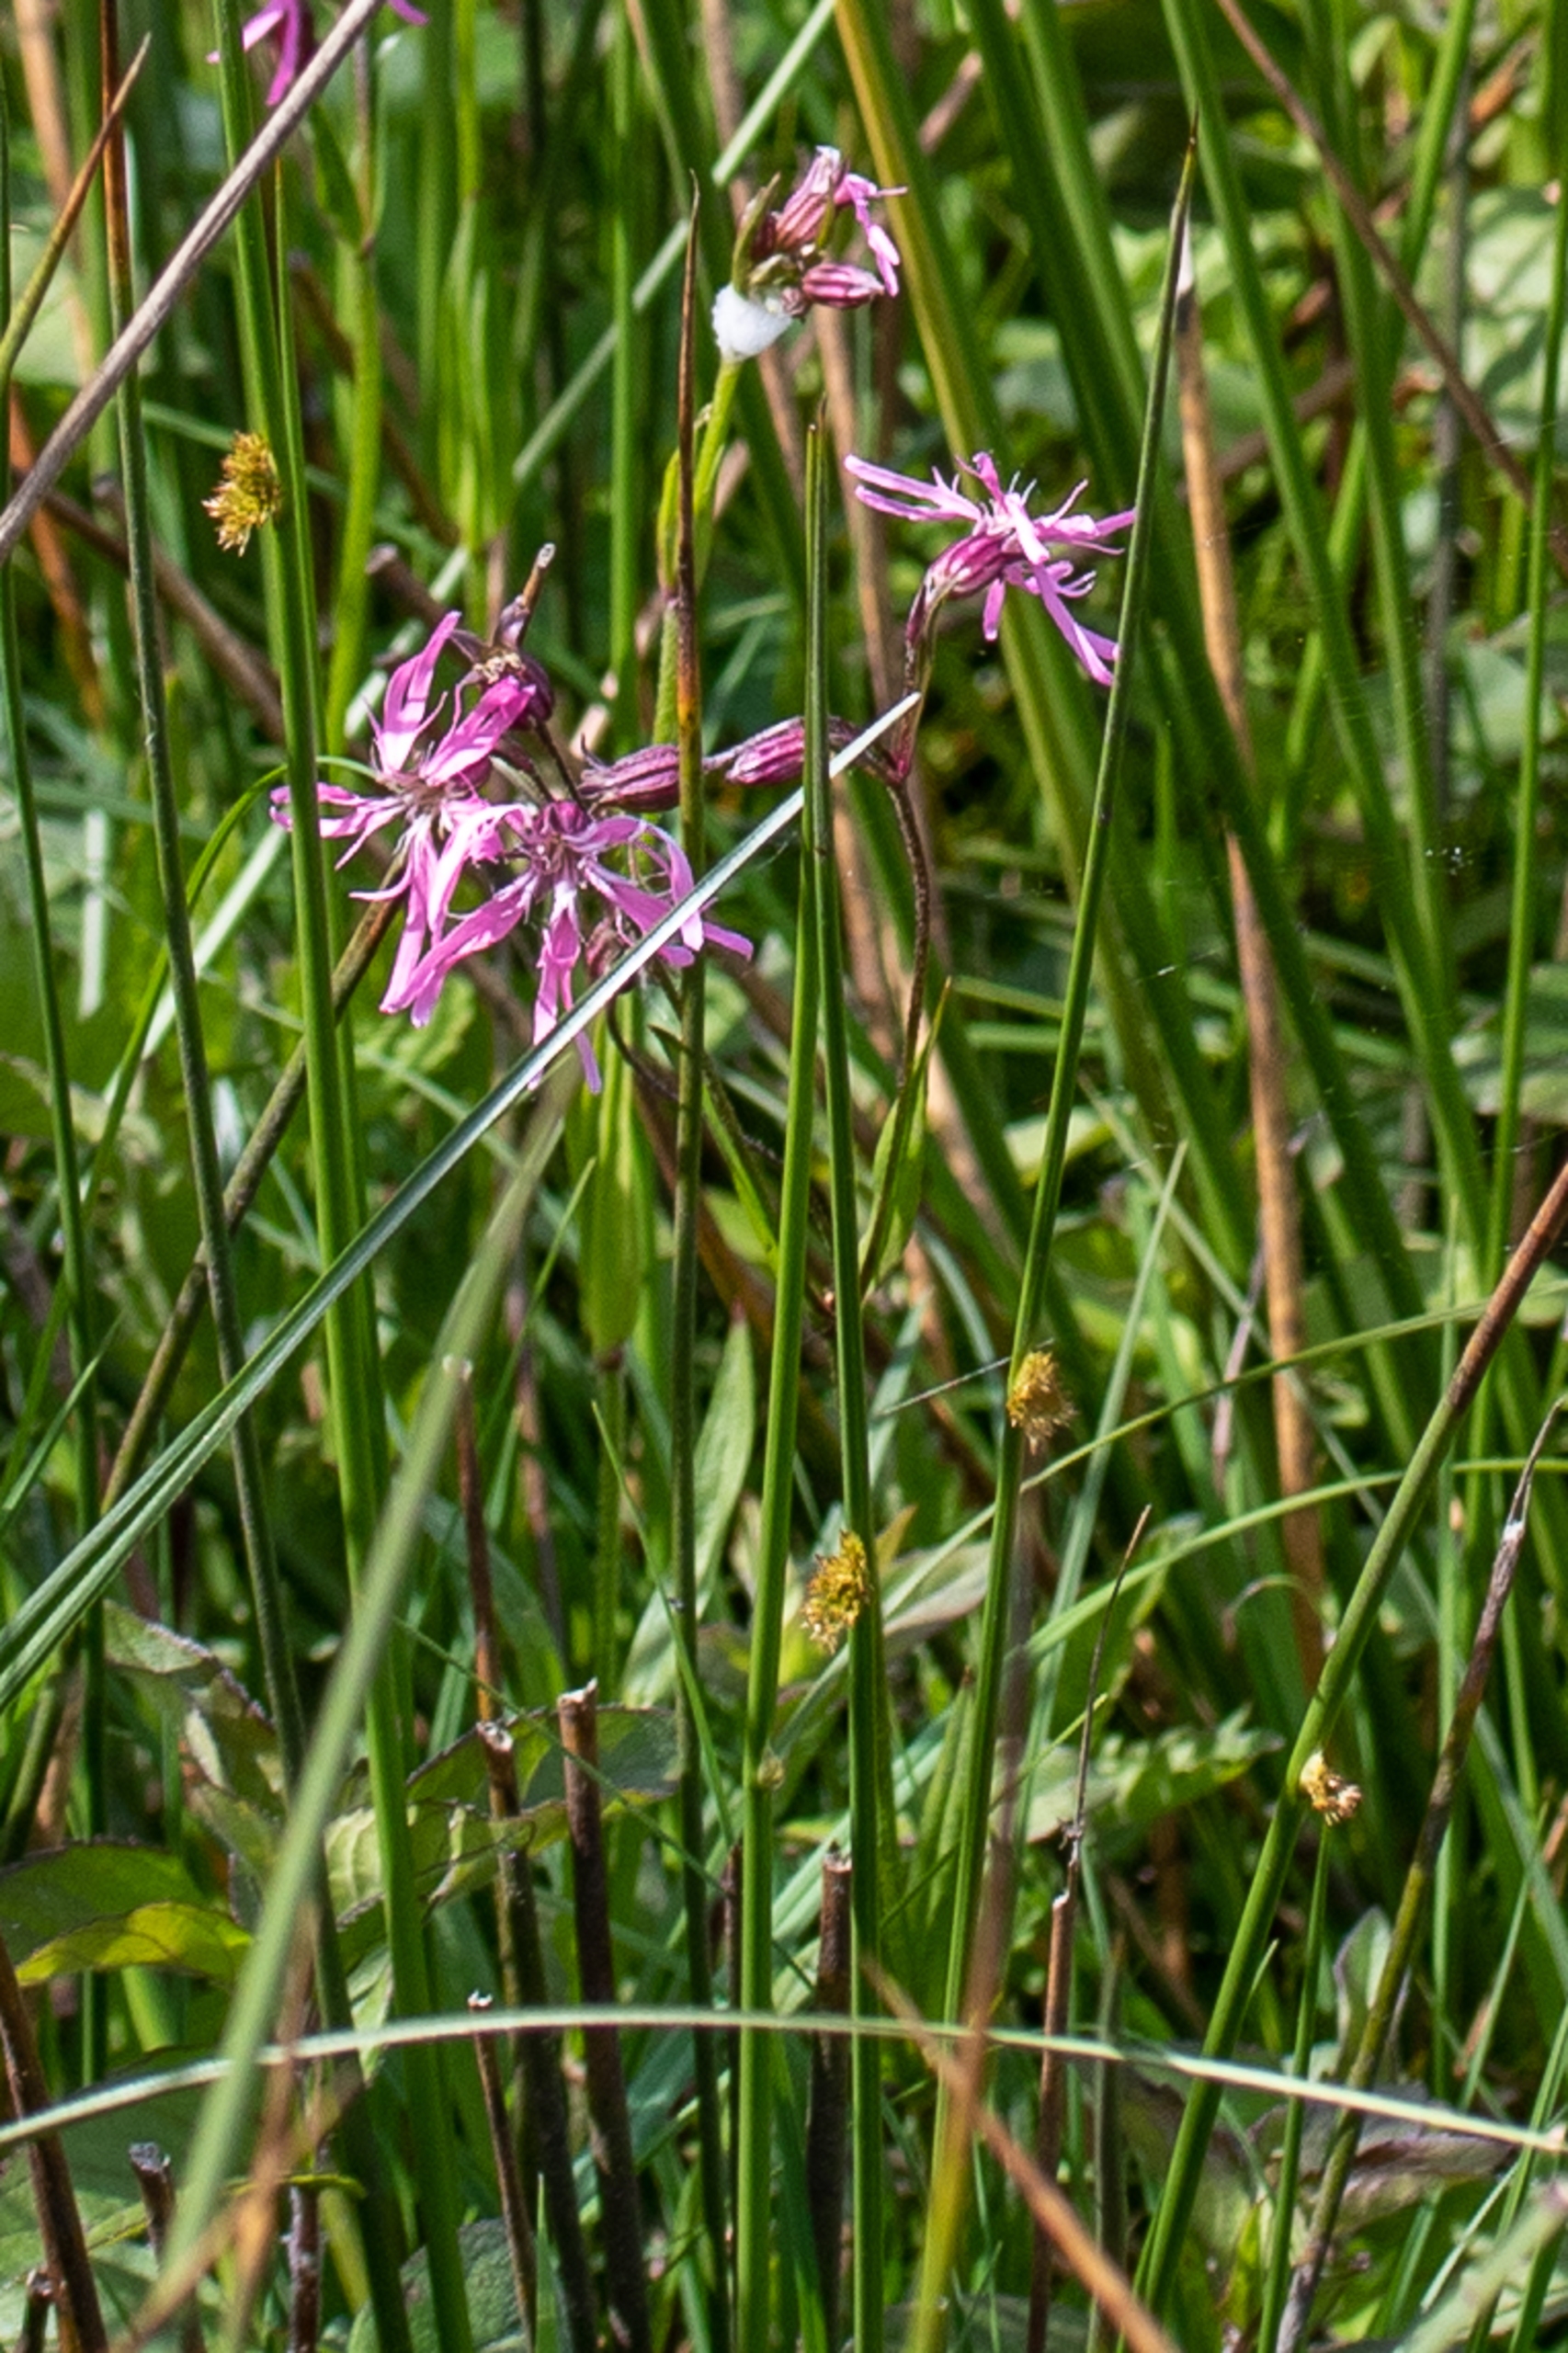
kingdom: Plantae
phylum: Tracheophyta
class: Magnoliopsida
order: Caryophyllales
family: Caryophyllaceae
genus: Silene
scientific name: Silene flos-cuculi
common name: Trævlekrone
